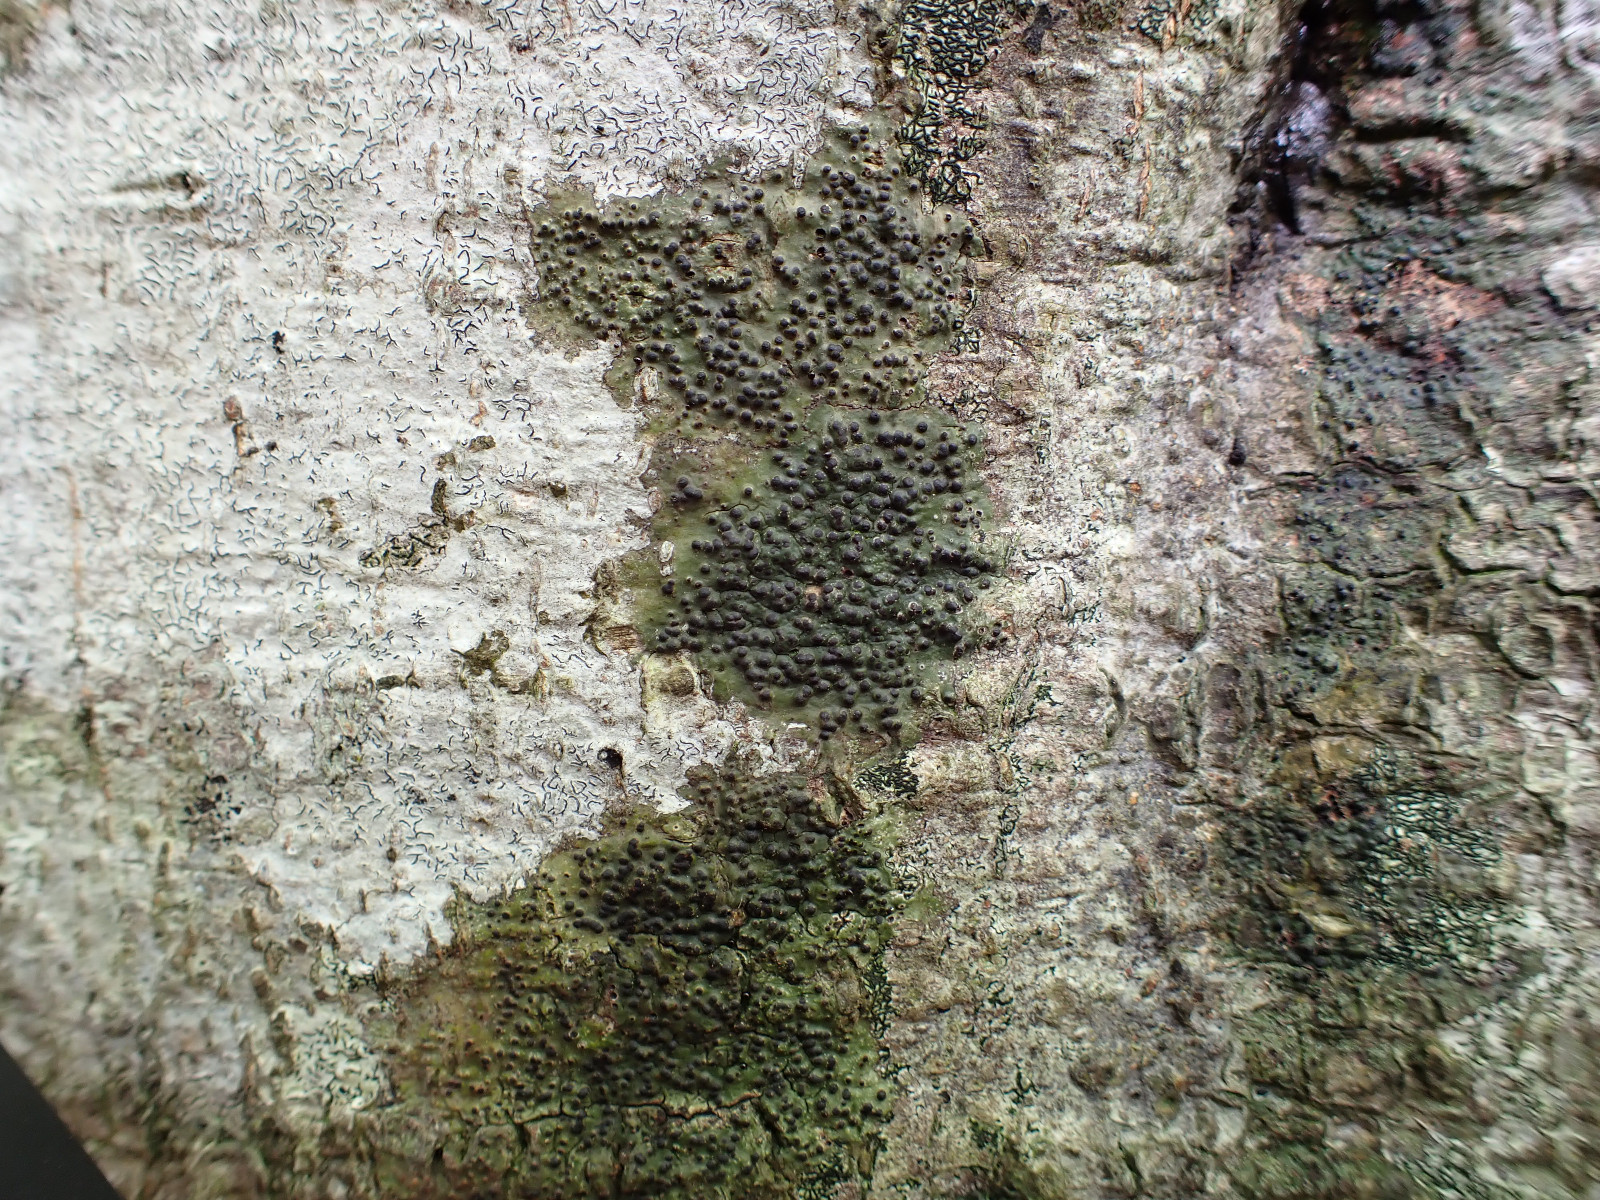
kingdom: Fungi
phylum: Ascomycota
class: Eurotiomycetes
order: Pyrenulales
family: Pyrenulaceae
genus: Pyrenula
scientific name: Pyrenula nitida
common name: glinsende kernelav
